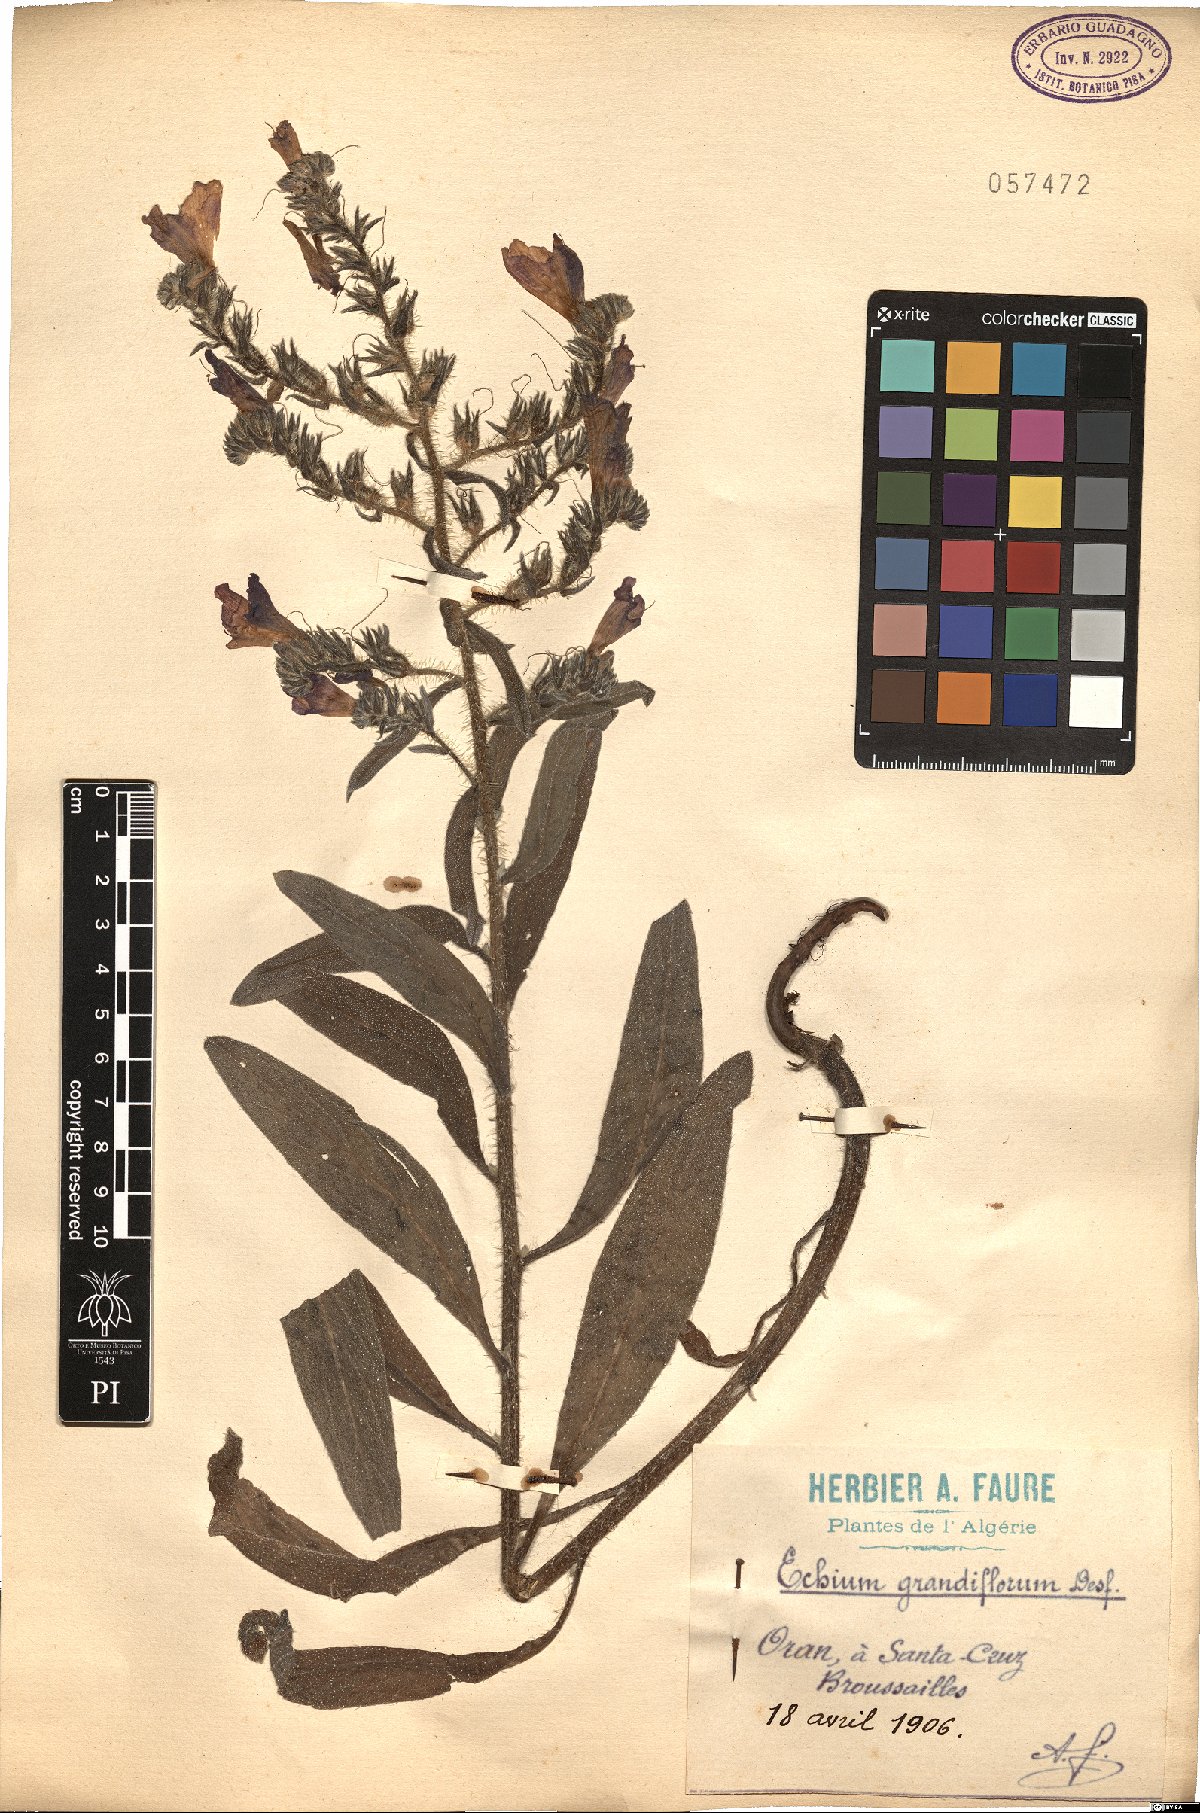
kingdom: Plantae
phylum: Tracheophyta
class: Magnoliopsida
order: Boraginales
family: Boraginaceae
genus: Lobostemon
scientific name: Lobostemon regulariflorus
